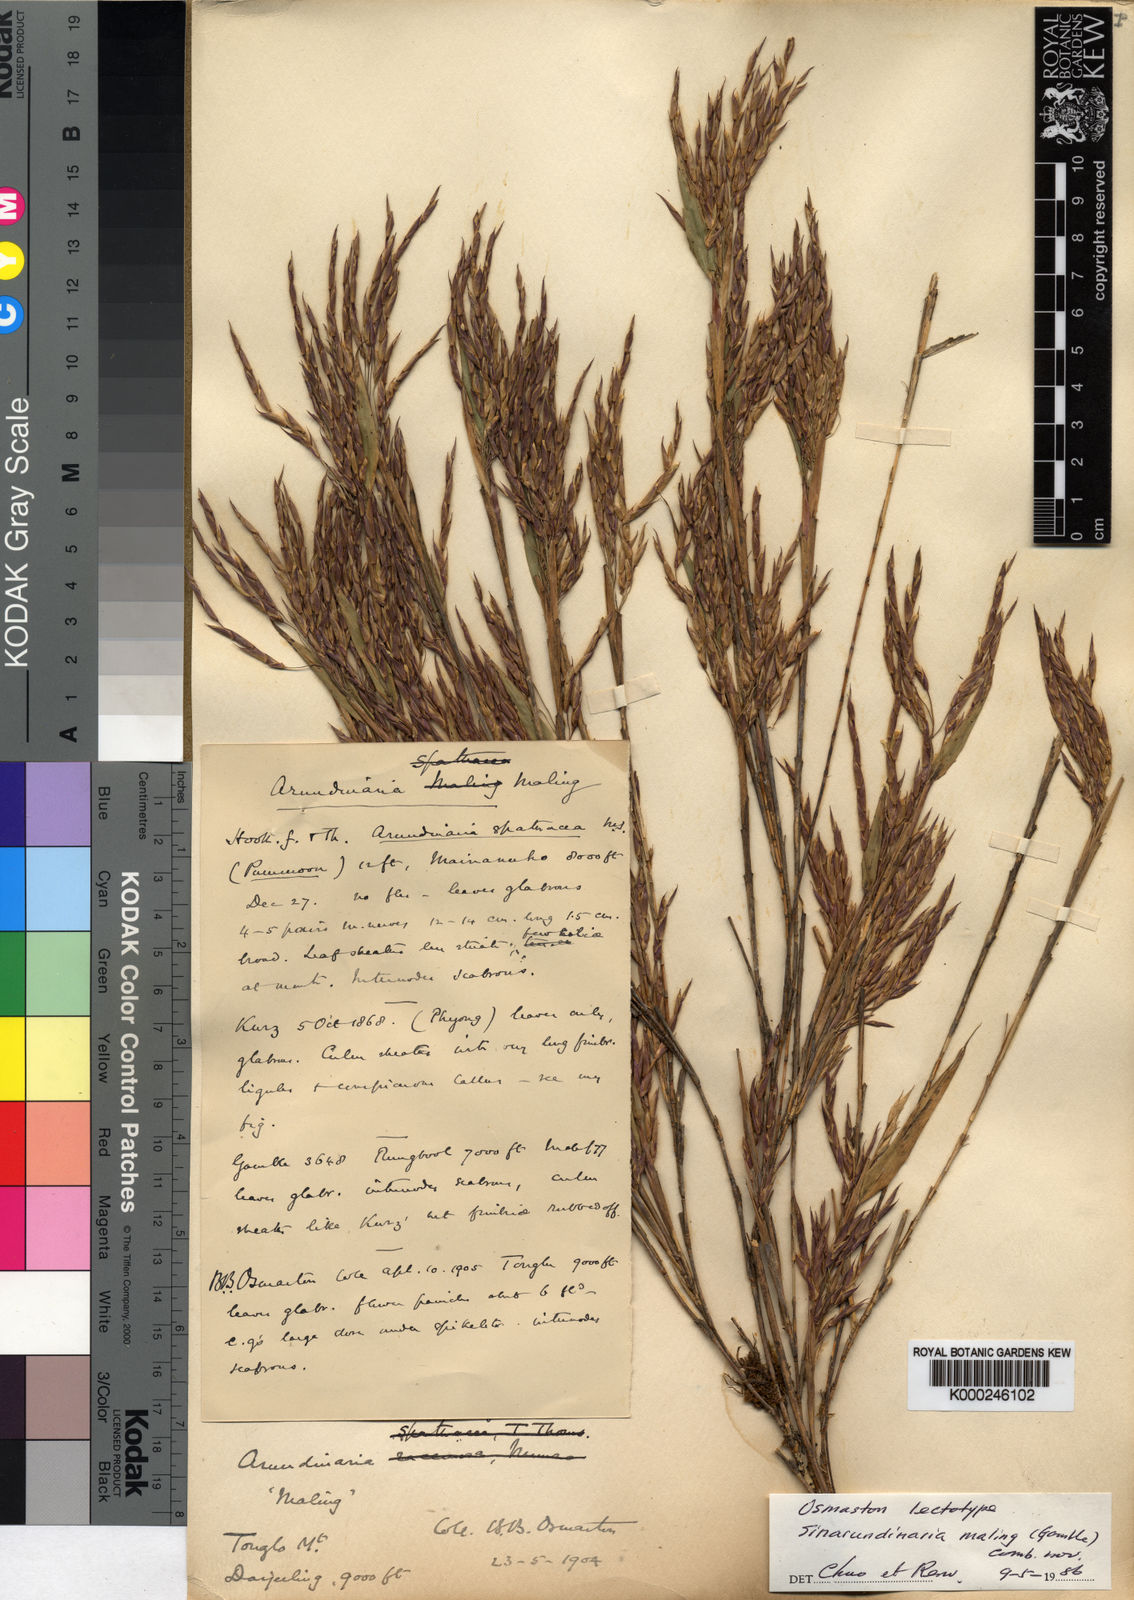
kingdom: Plantae
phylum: Tracheophyta
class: Liliopsida
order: Poales
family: Poaceae
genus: Yushania
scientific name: Yushania maling
